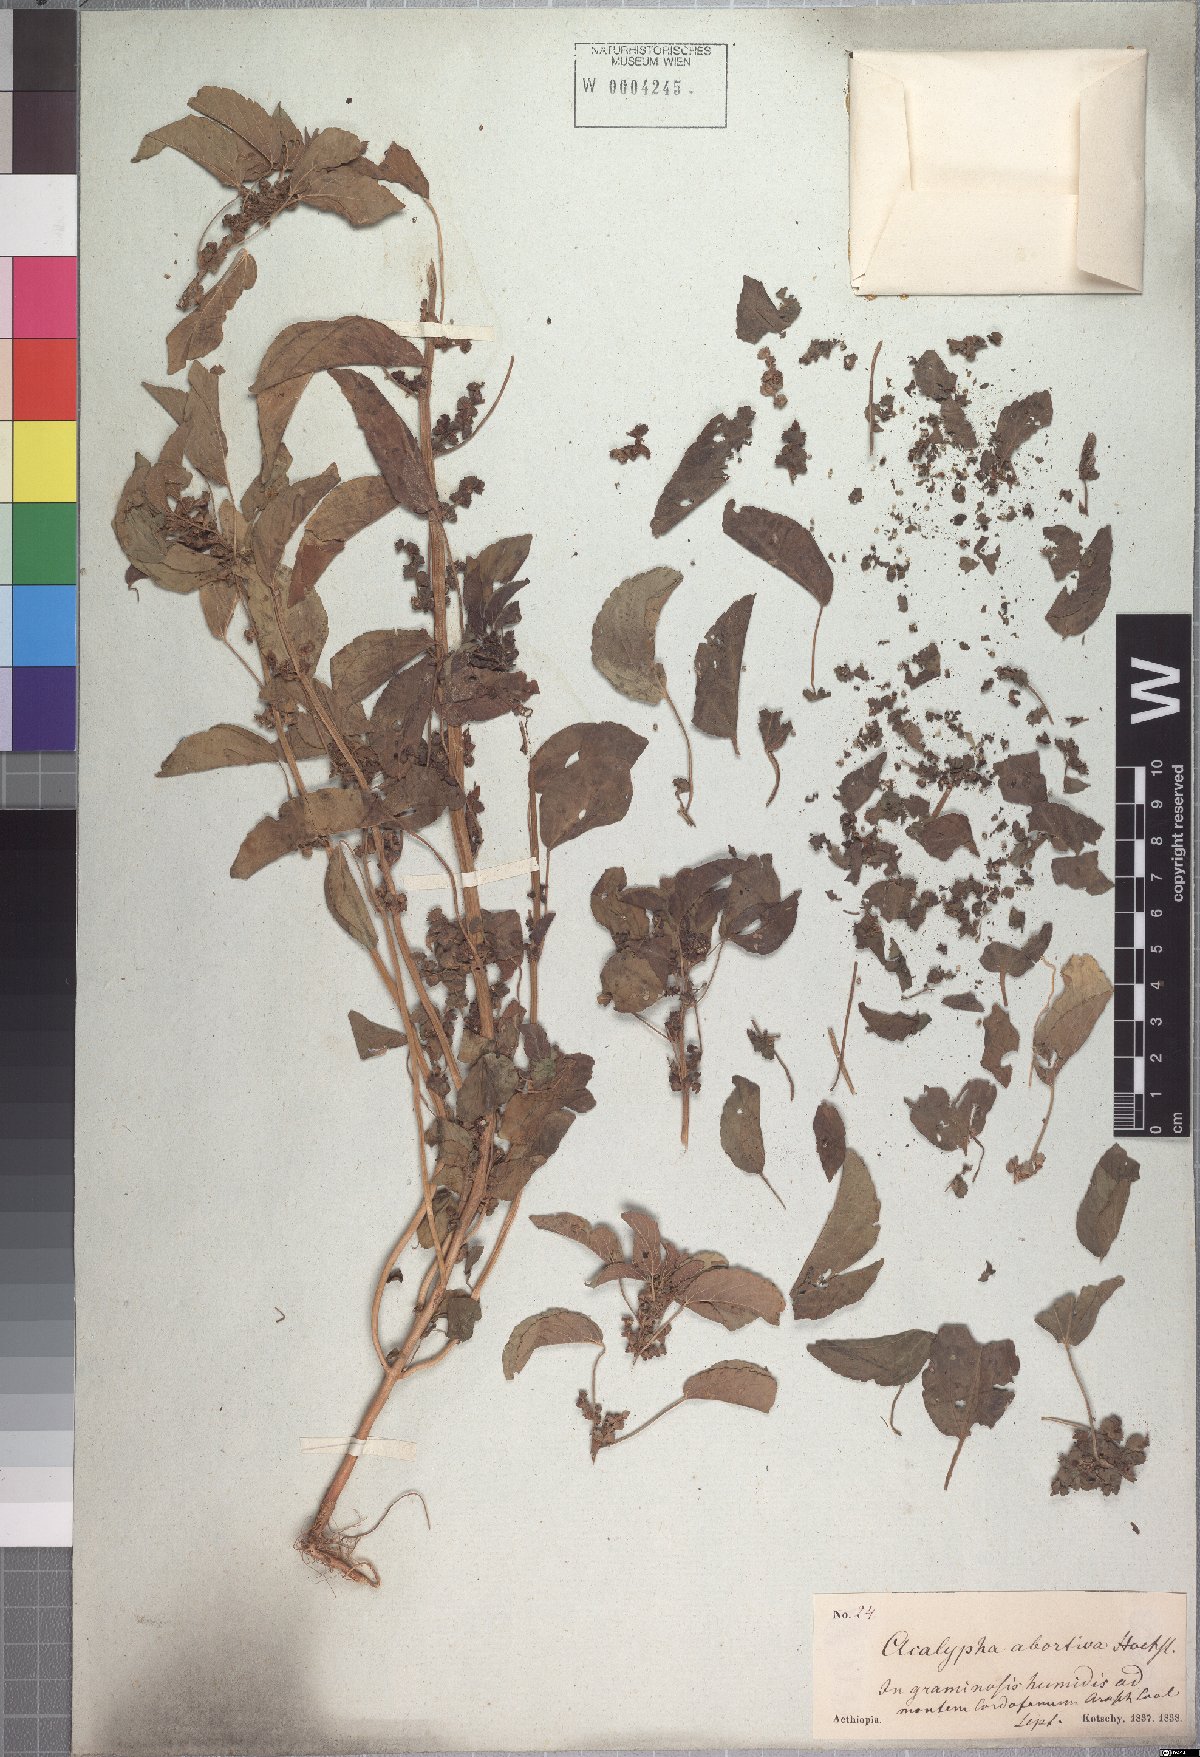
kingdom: Plantae
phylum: Tracheophyta
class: Magnoliopsida
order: Malpighiales
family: Euphorbiaceae
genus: Acalypha
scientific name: Acalypha crenata
